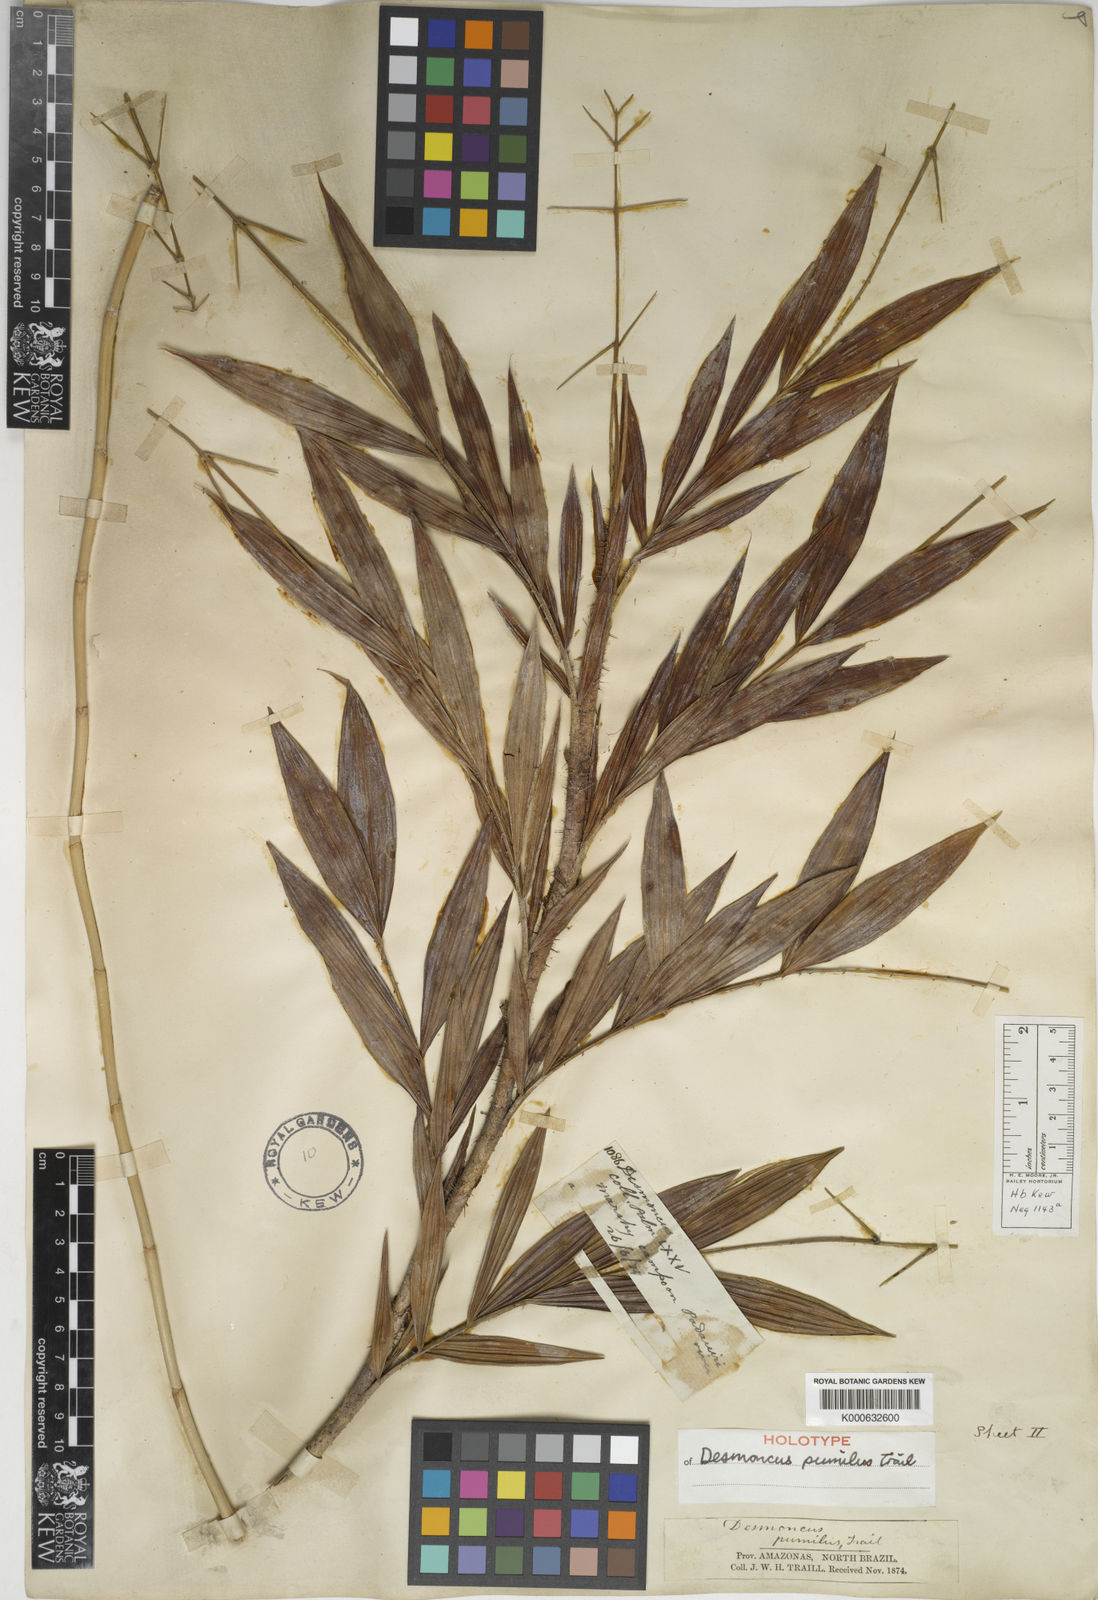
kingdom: Plantae
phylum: Tracheophyta
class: Liliopsida
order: Arecales
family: Arecaceae
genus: Desmoncus
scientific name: Desmoncus pumilus
